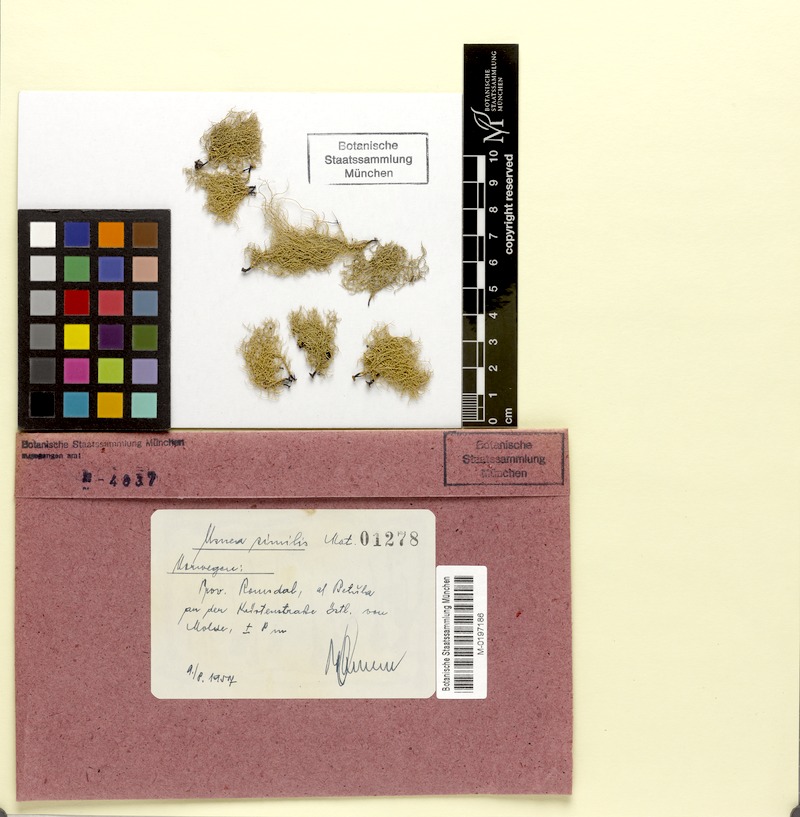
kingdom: Fungi
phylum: Ascomycota
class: Lecanoromycetes
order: Lecanorales
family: Parmeliaceae
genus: Usnea
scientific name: Usnea subfloridana
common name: Boreal beard lichen
